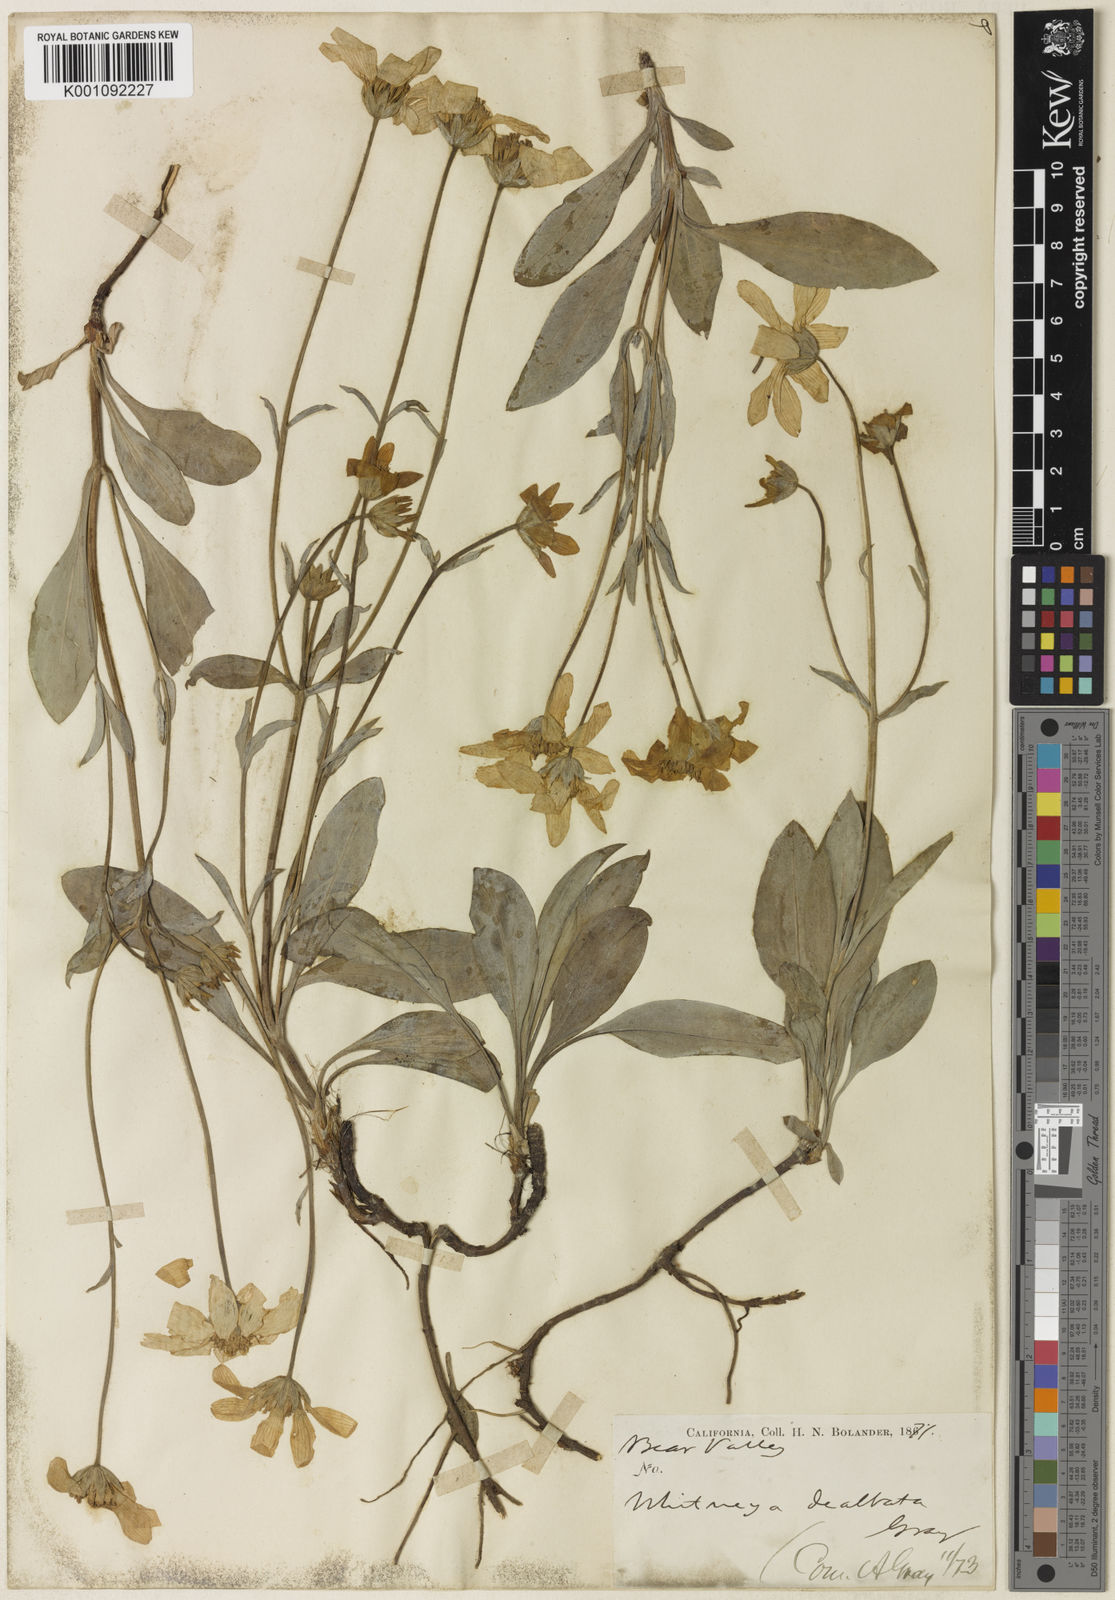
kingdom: Plantae
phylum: Tracheophyta
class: Magnoliopsida
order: Asterales
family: Asteraceae
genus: Arnica
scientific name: Arnica dealbata
